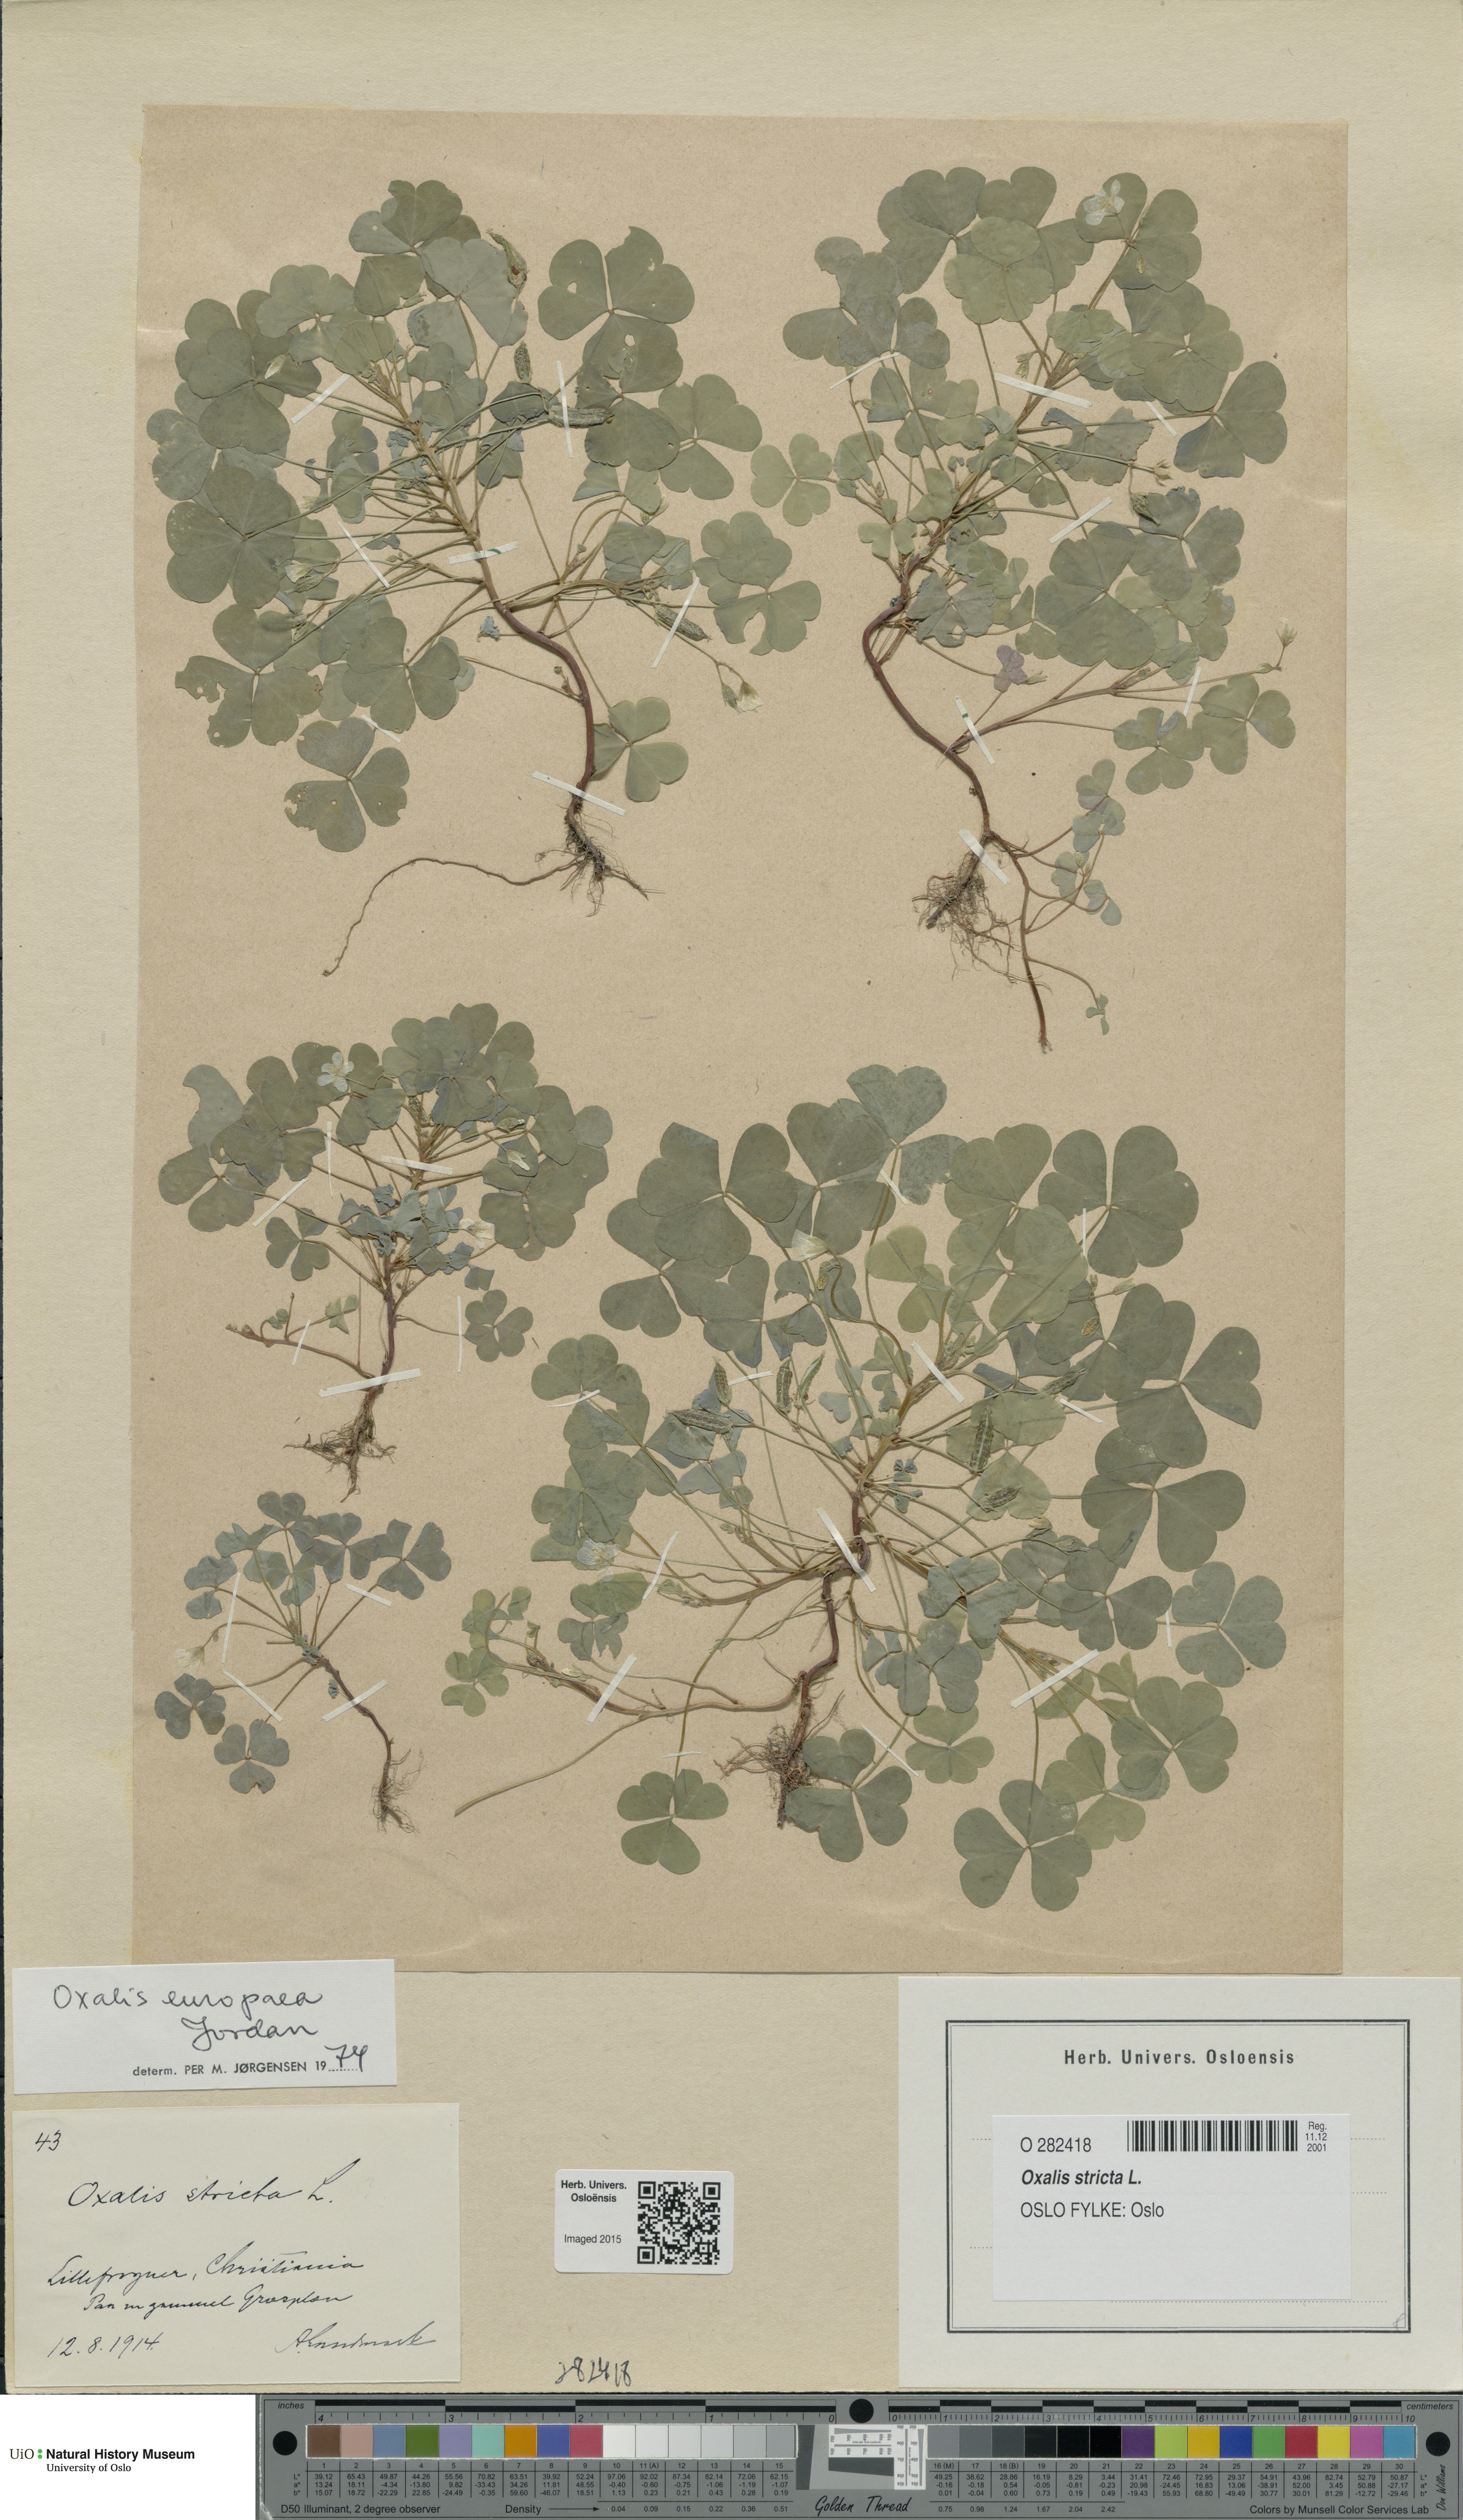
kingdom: Plantae
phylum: Tracheophyta
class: Magnoliopsida
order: Oxalidales
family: Oxalidaceae
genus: Oxalis
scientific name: Oxalis stricta
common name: Upright yellow-sorrel
